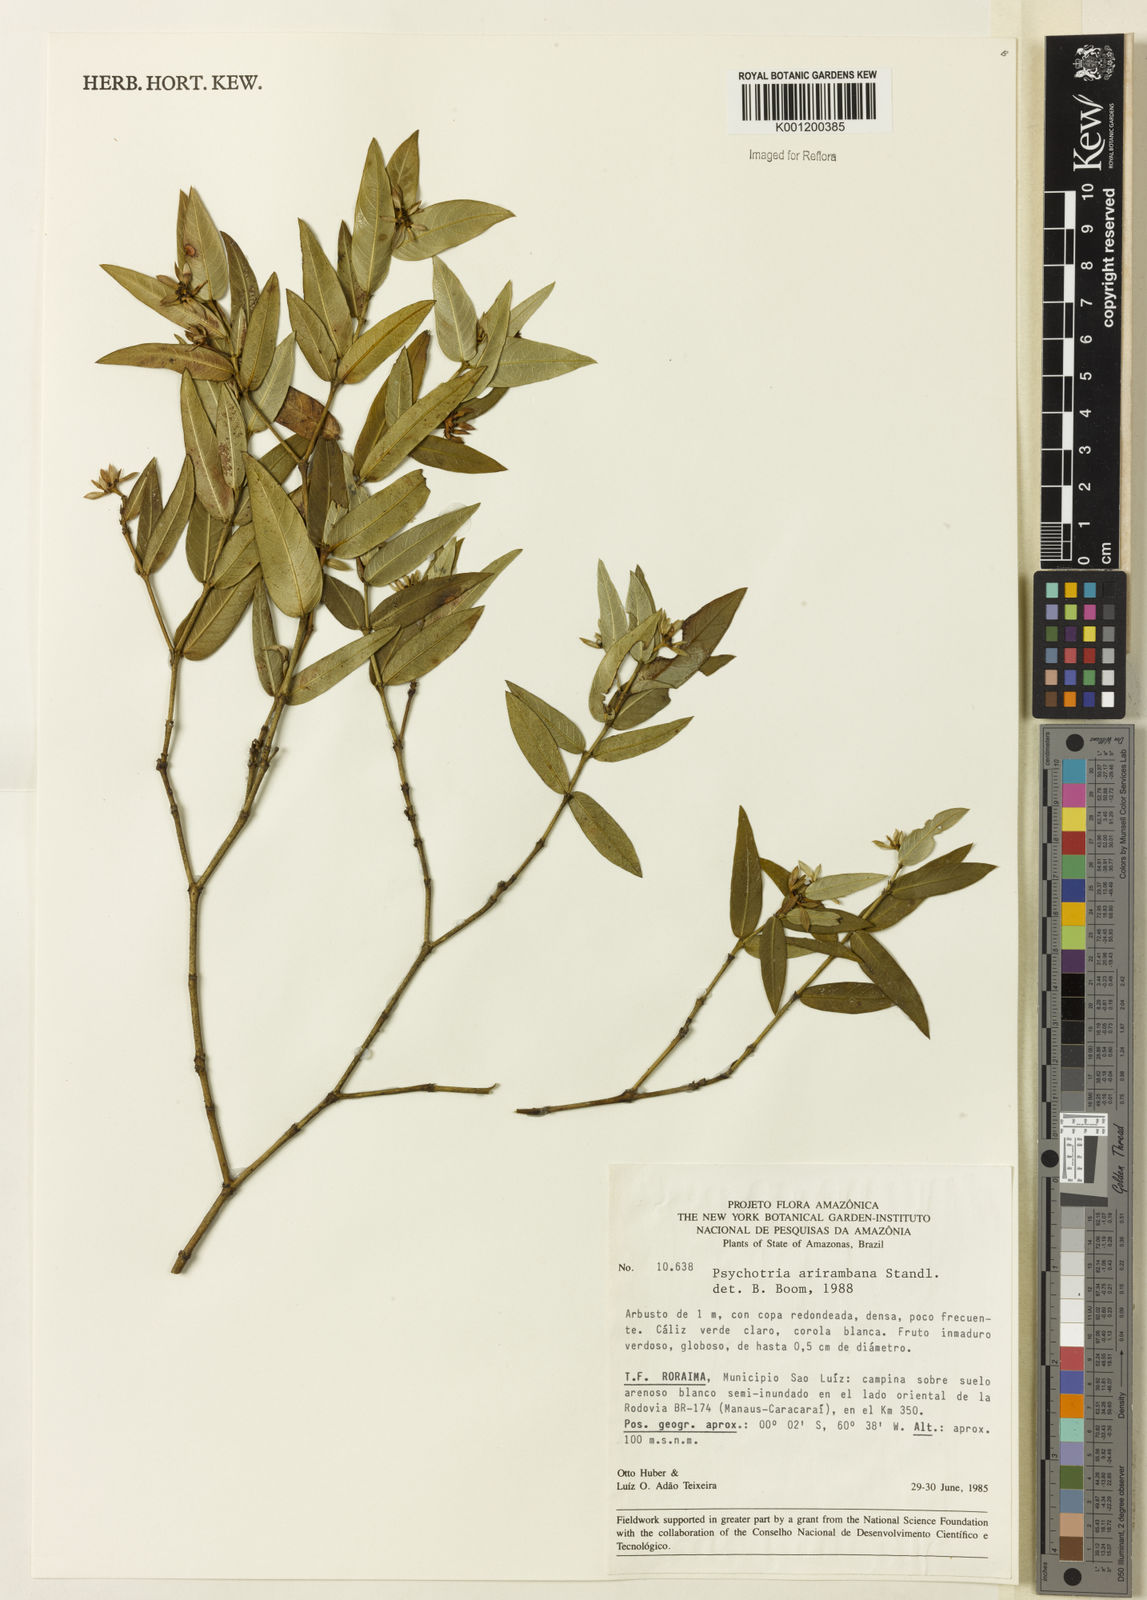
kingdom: Plantae
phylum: Tracheophyta
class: Magnoliopsida
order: Gentianales
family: Rubiaceae
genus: Psychotria
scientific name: Psychotria arirambana
